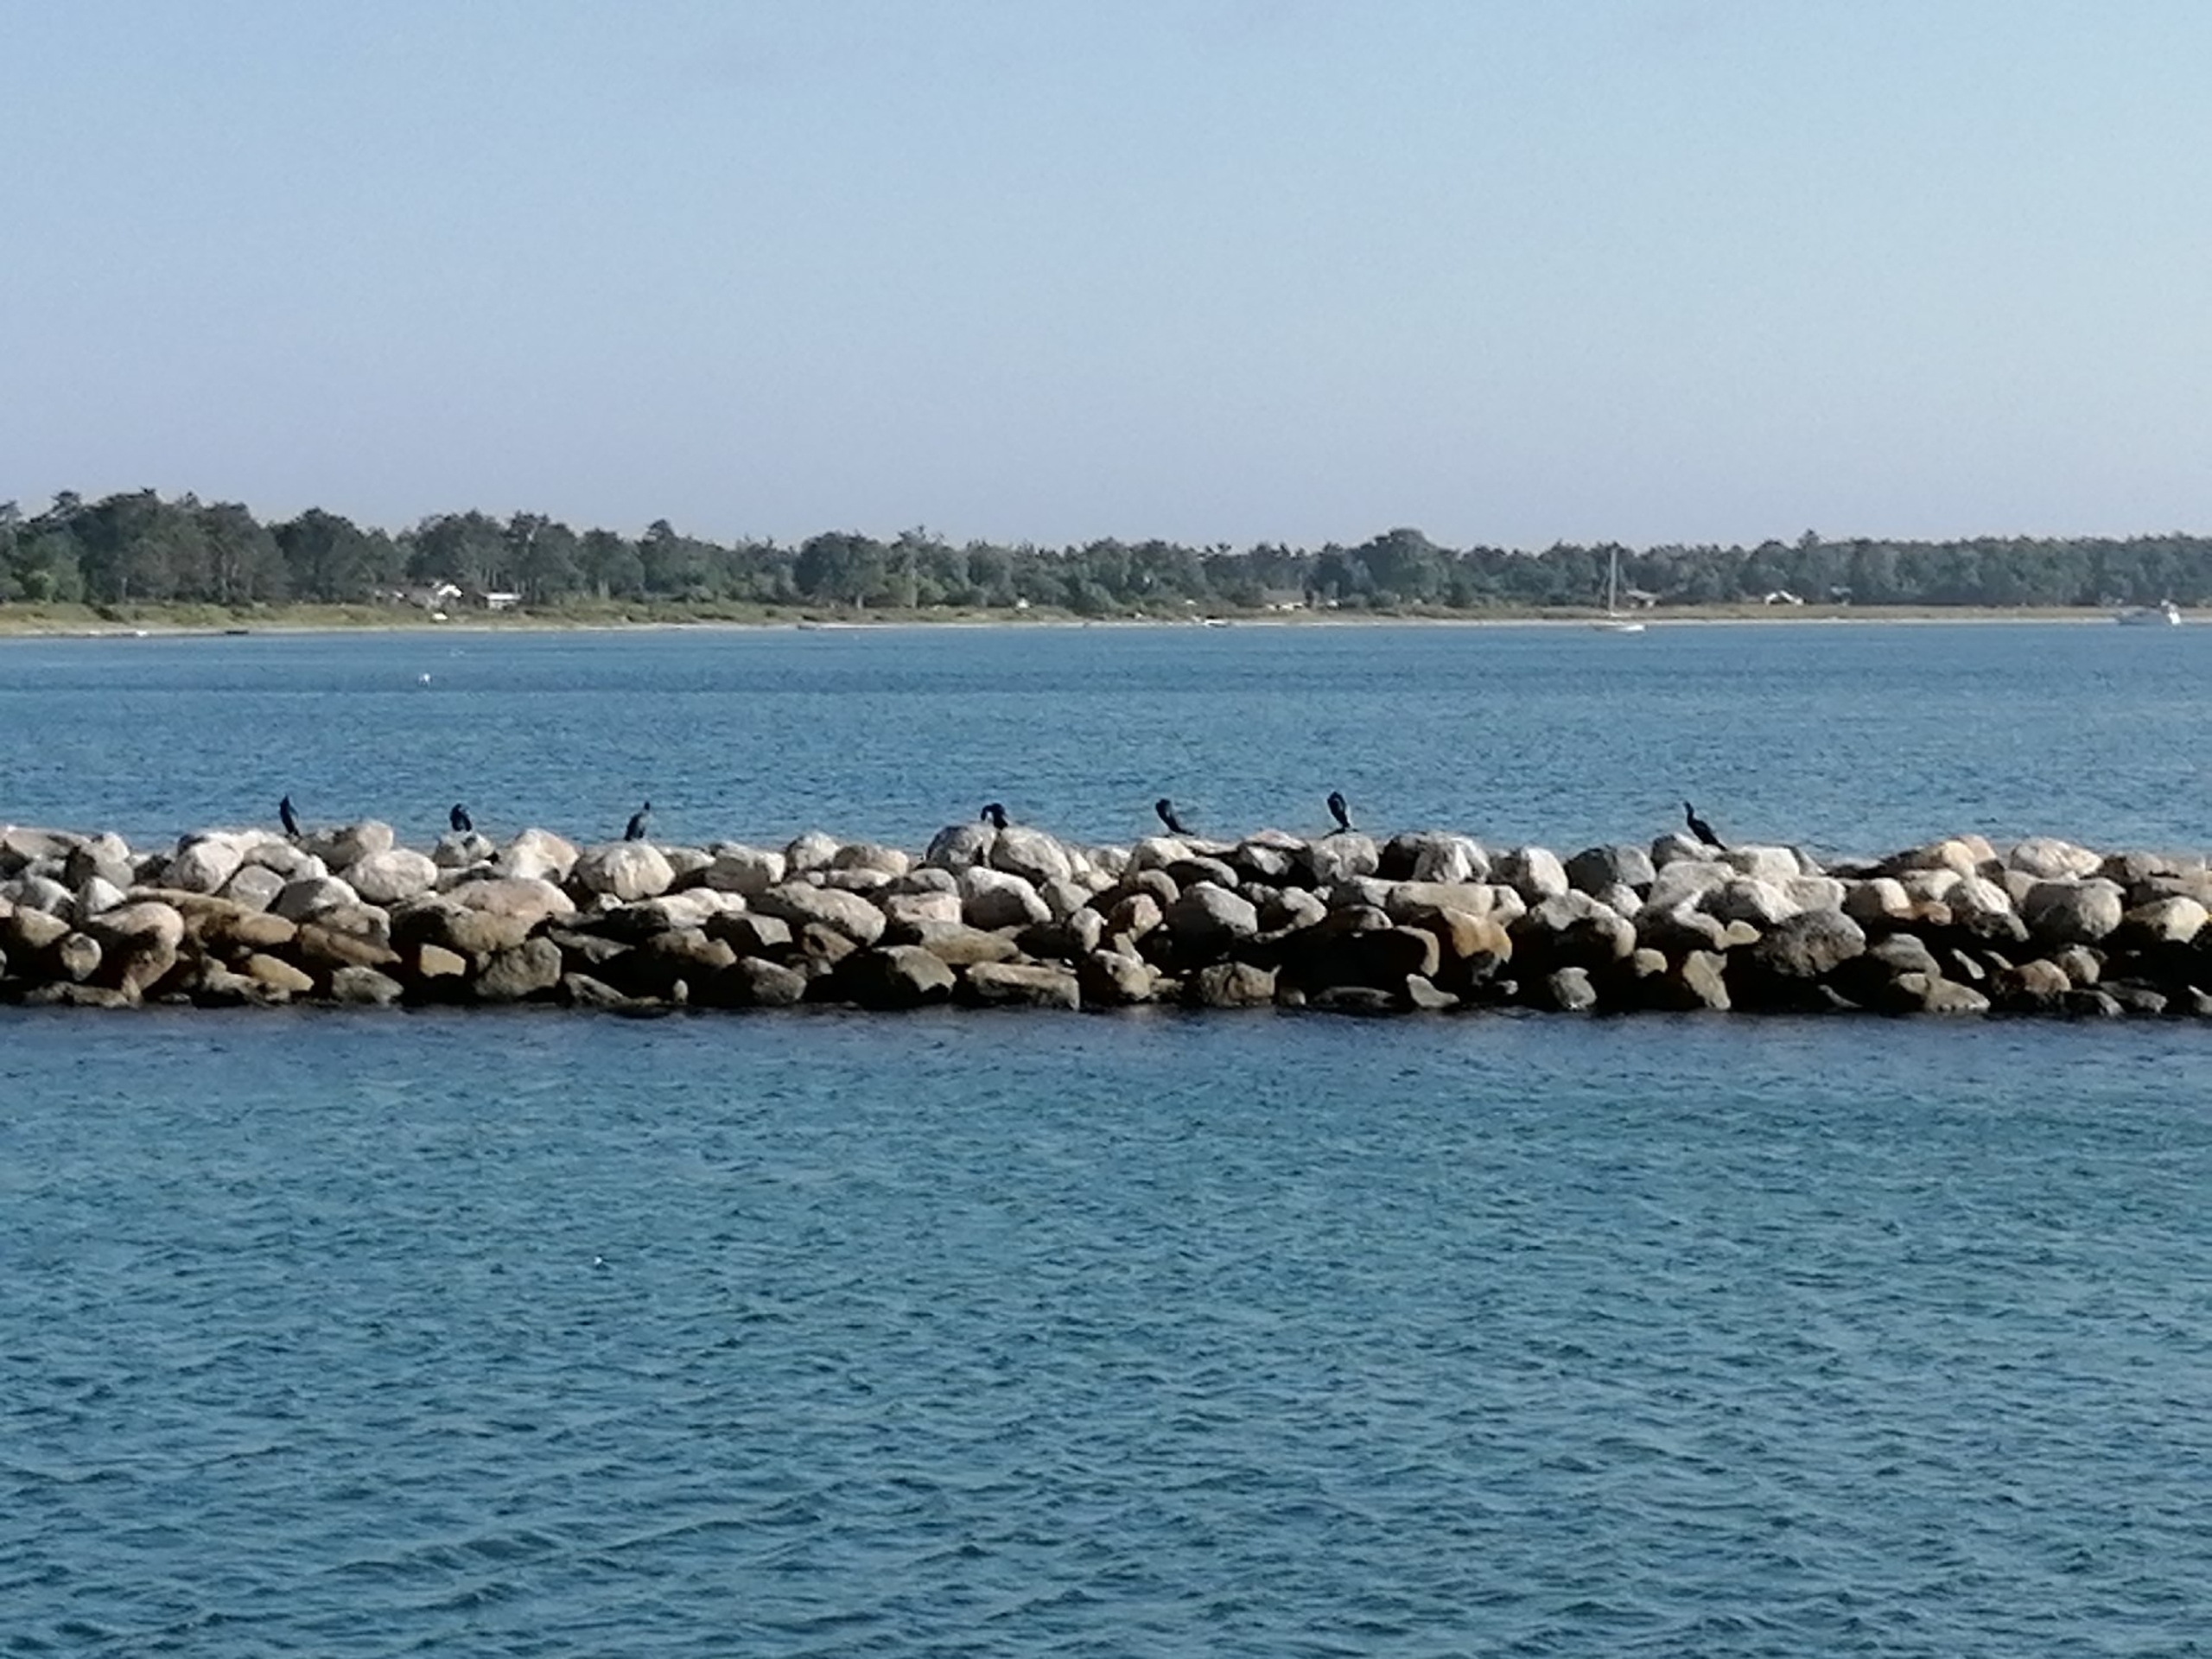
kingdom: Animalia
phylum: Chordata
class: Aves
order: Suliformes
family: Phalacrocoracidae
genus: Phalacrocorax
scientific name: Phalacrocorax carbo
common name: Skarv
